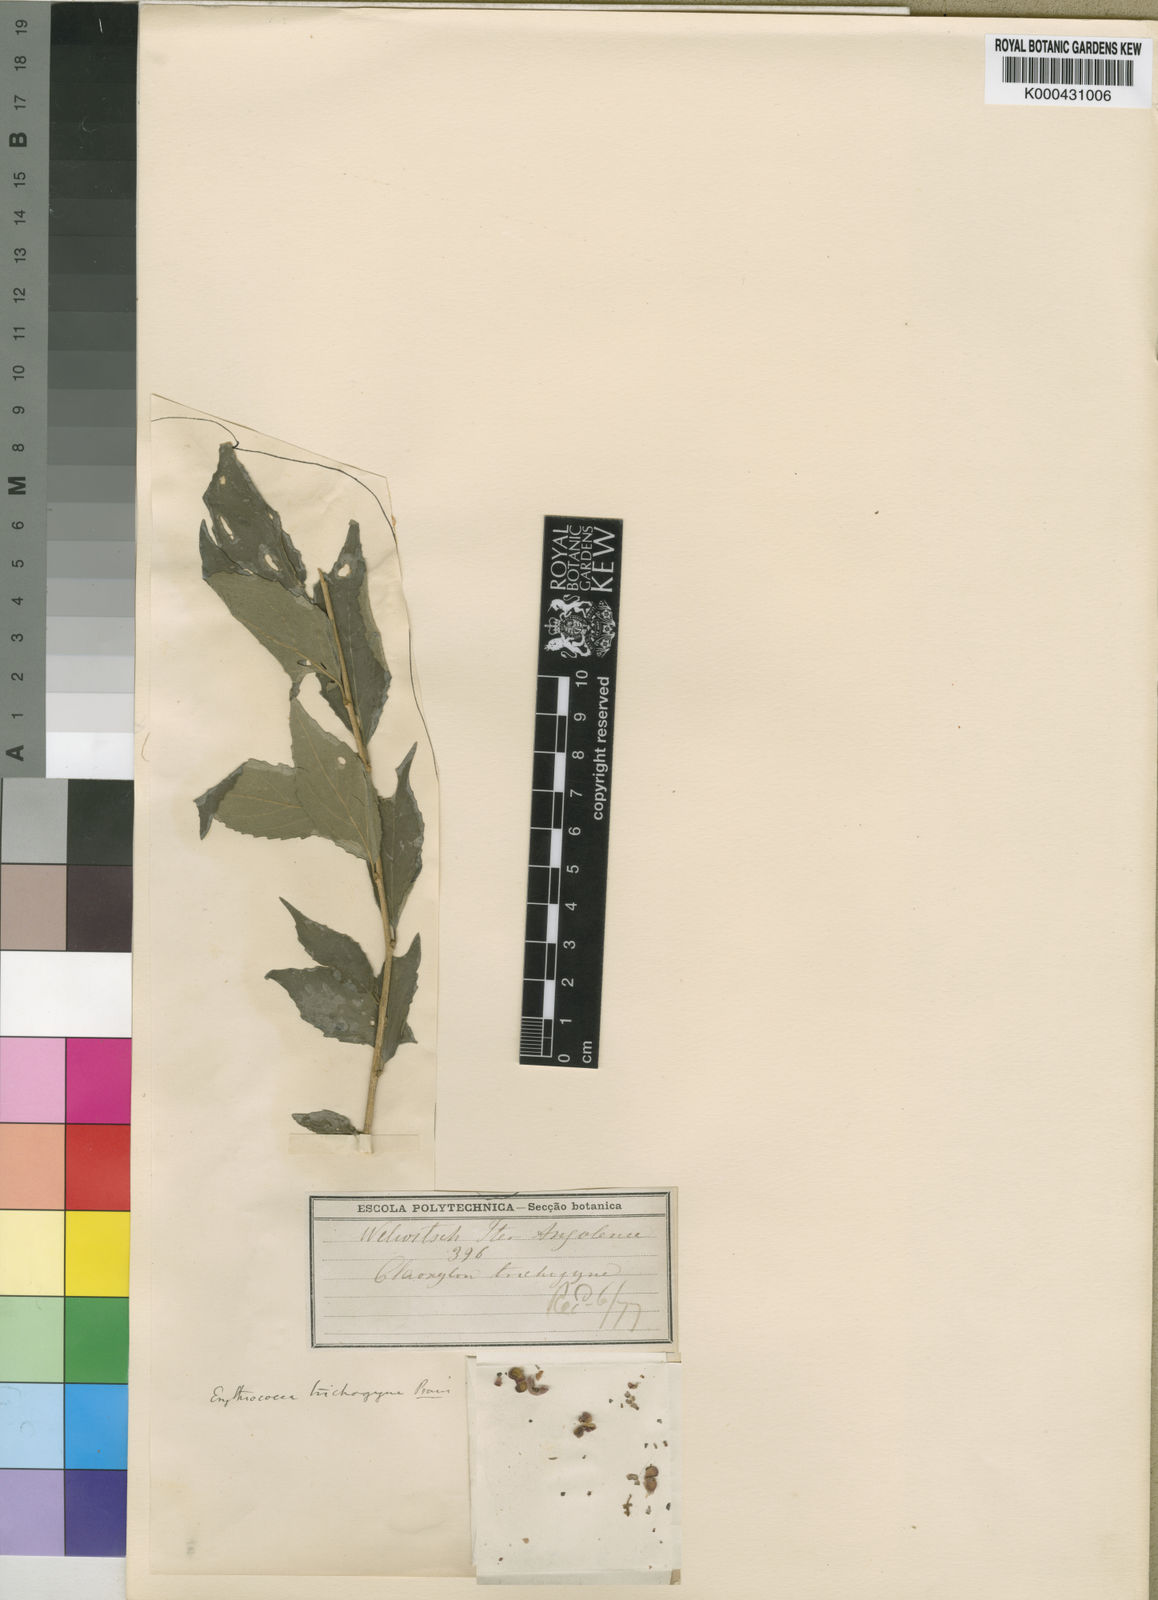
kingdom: Plantae
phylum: Tracheophyta
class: Magnoliopsida
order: Malpighiales
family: Euphorbiaceae
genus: Erythrococca
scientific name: Erythrococca
